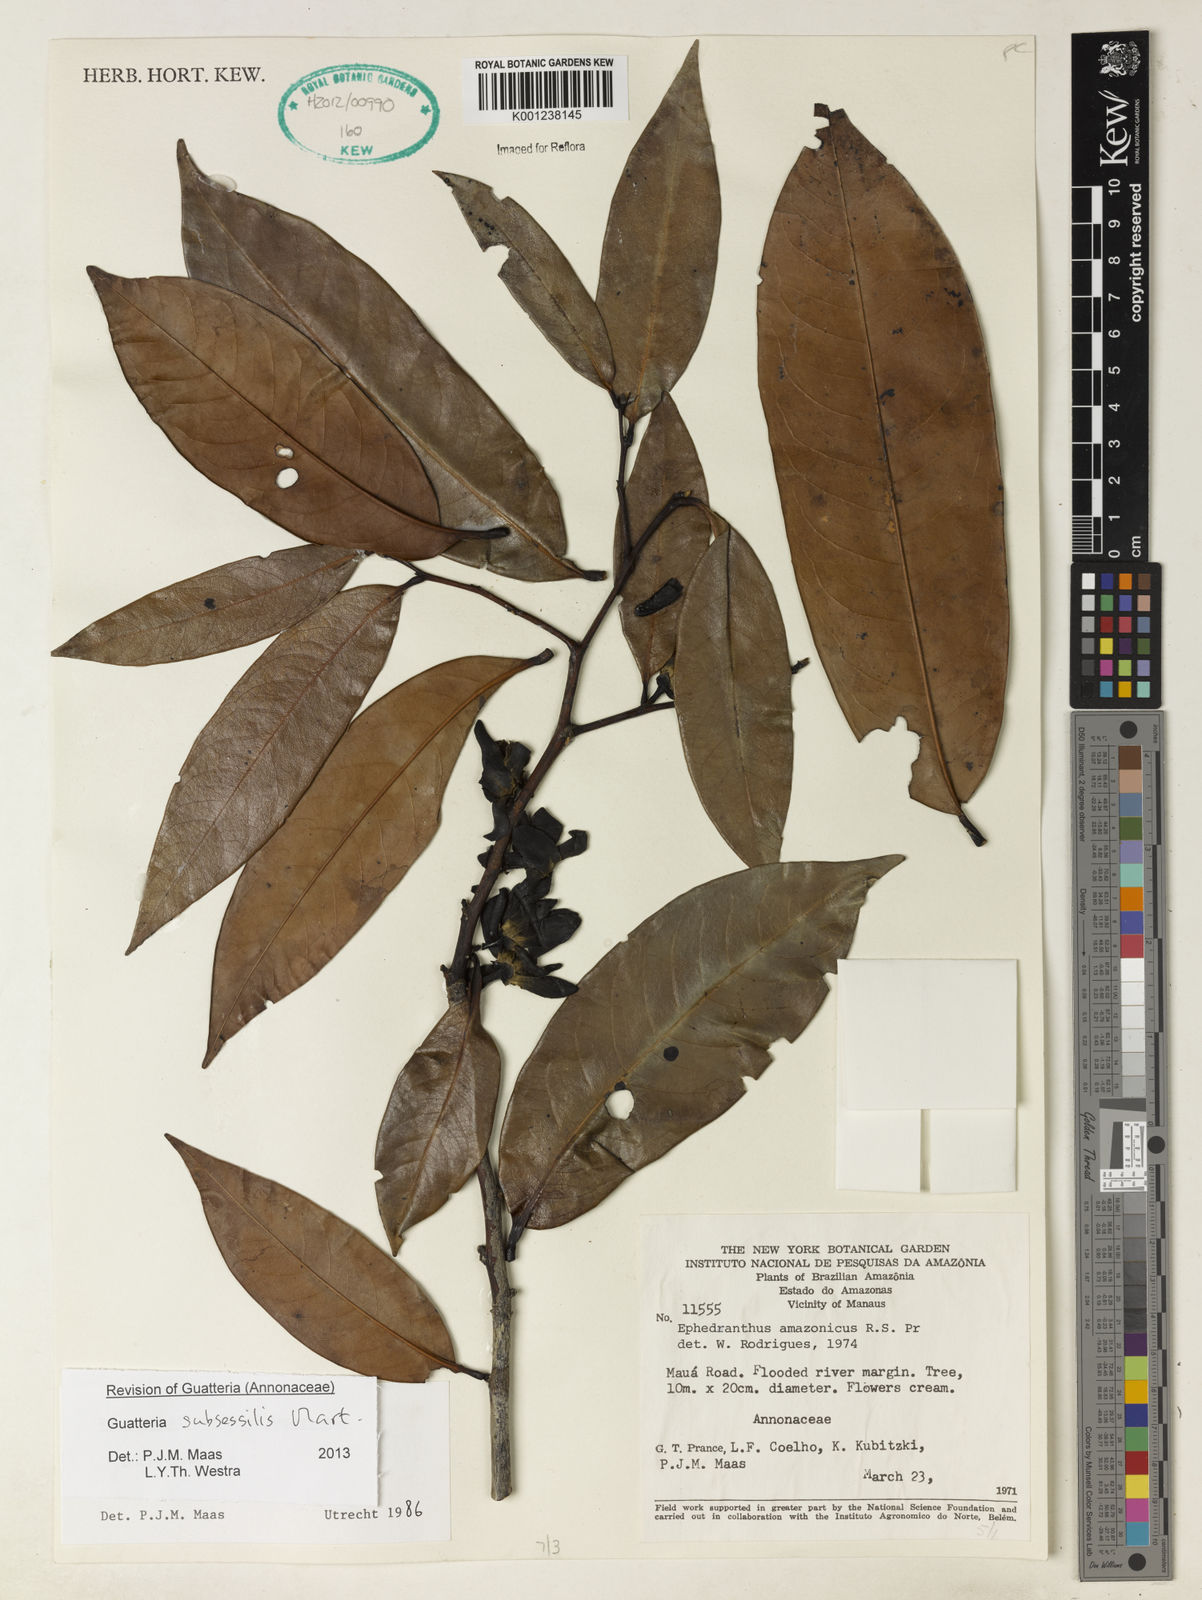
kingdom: Plantae
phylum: Tracheophyta
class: Magnoliopsida
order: Magnoliales
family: Annonaceae
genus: Guatteria
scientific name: Guatteria subsessilis
